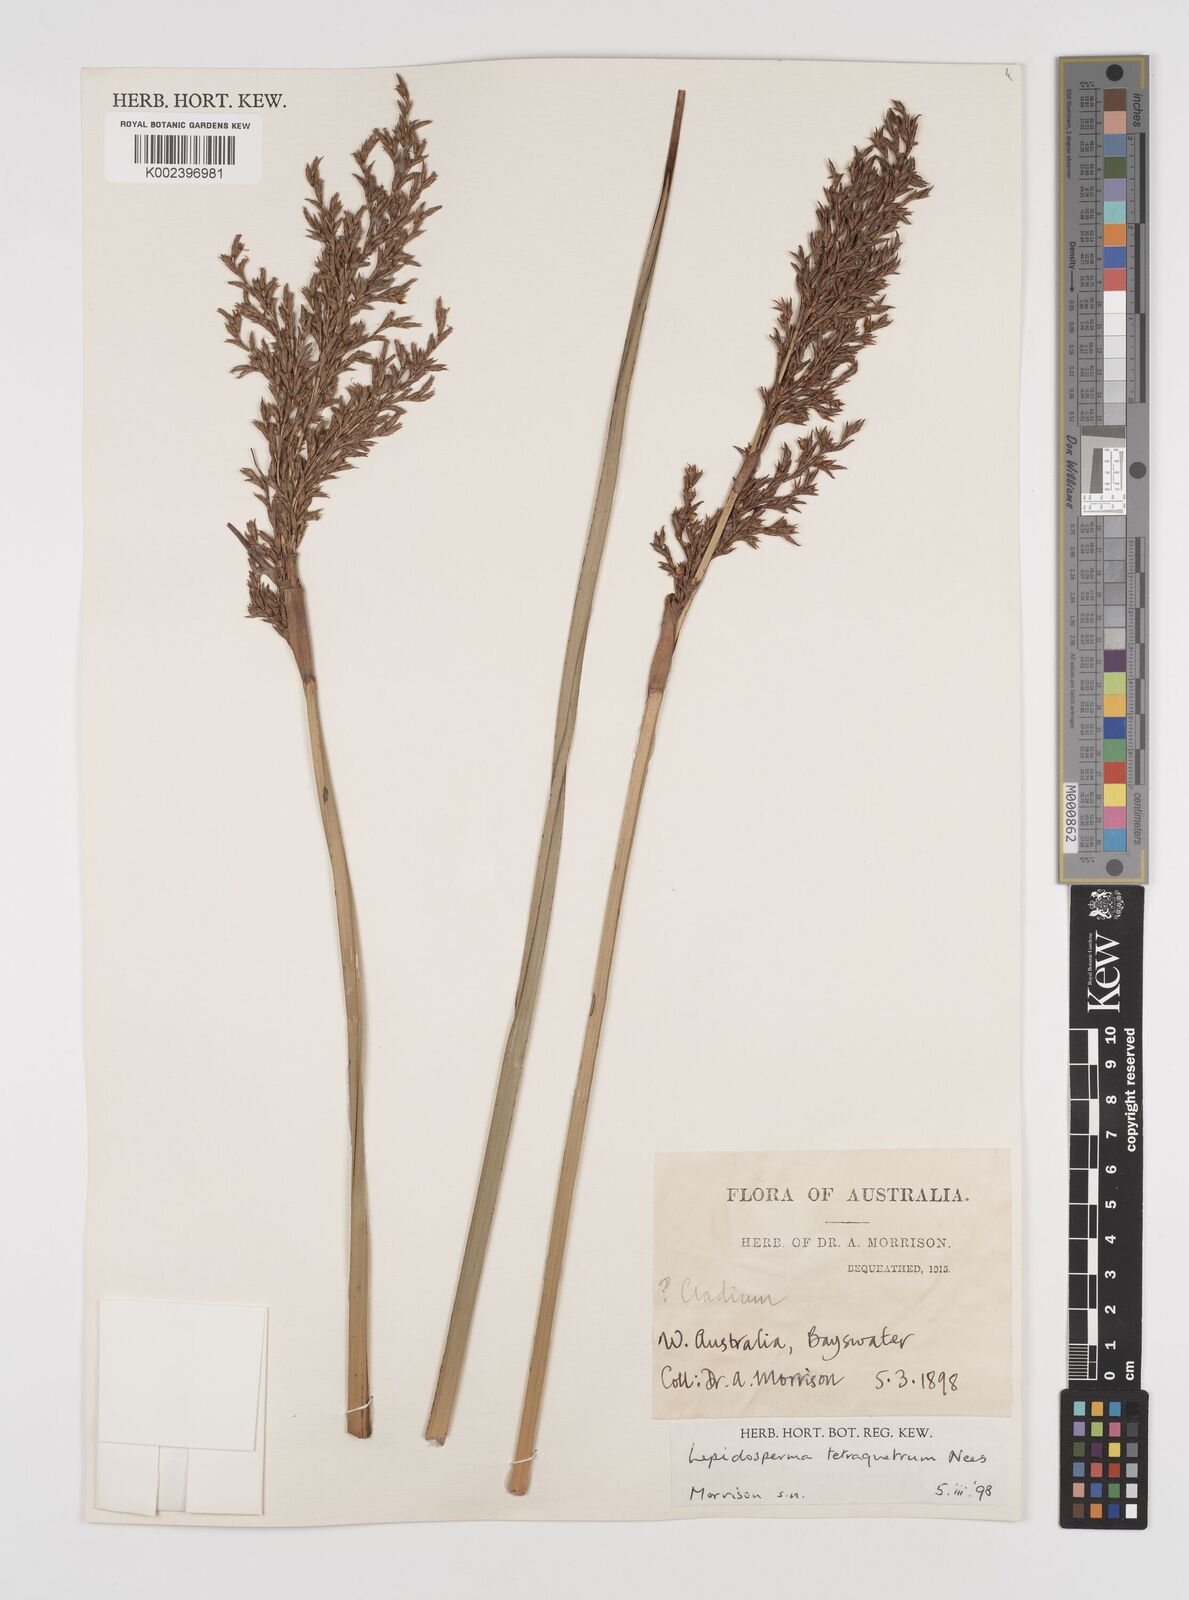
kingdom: Plantae
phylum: Tracheophyta
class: Liliopsida
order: Poales
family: Cyperaceae
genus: Lepidosperma
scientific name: Lepidosperma tetraquetrum
